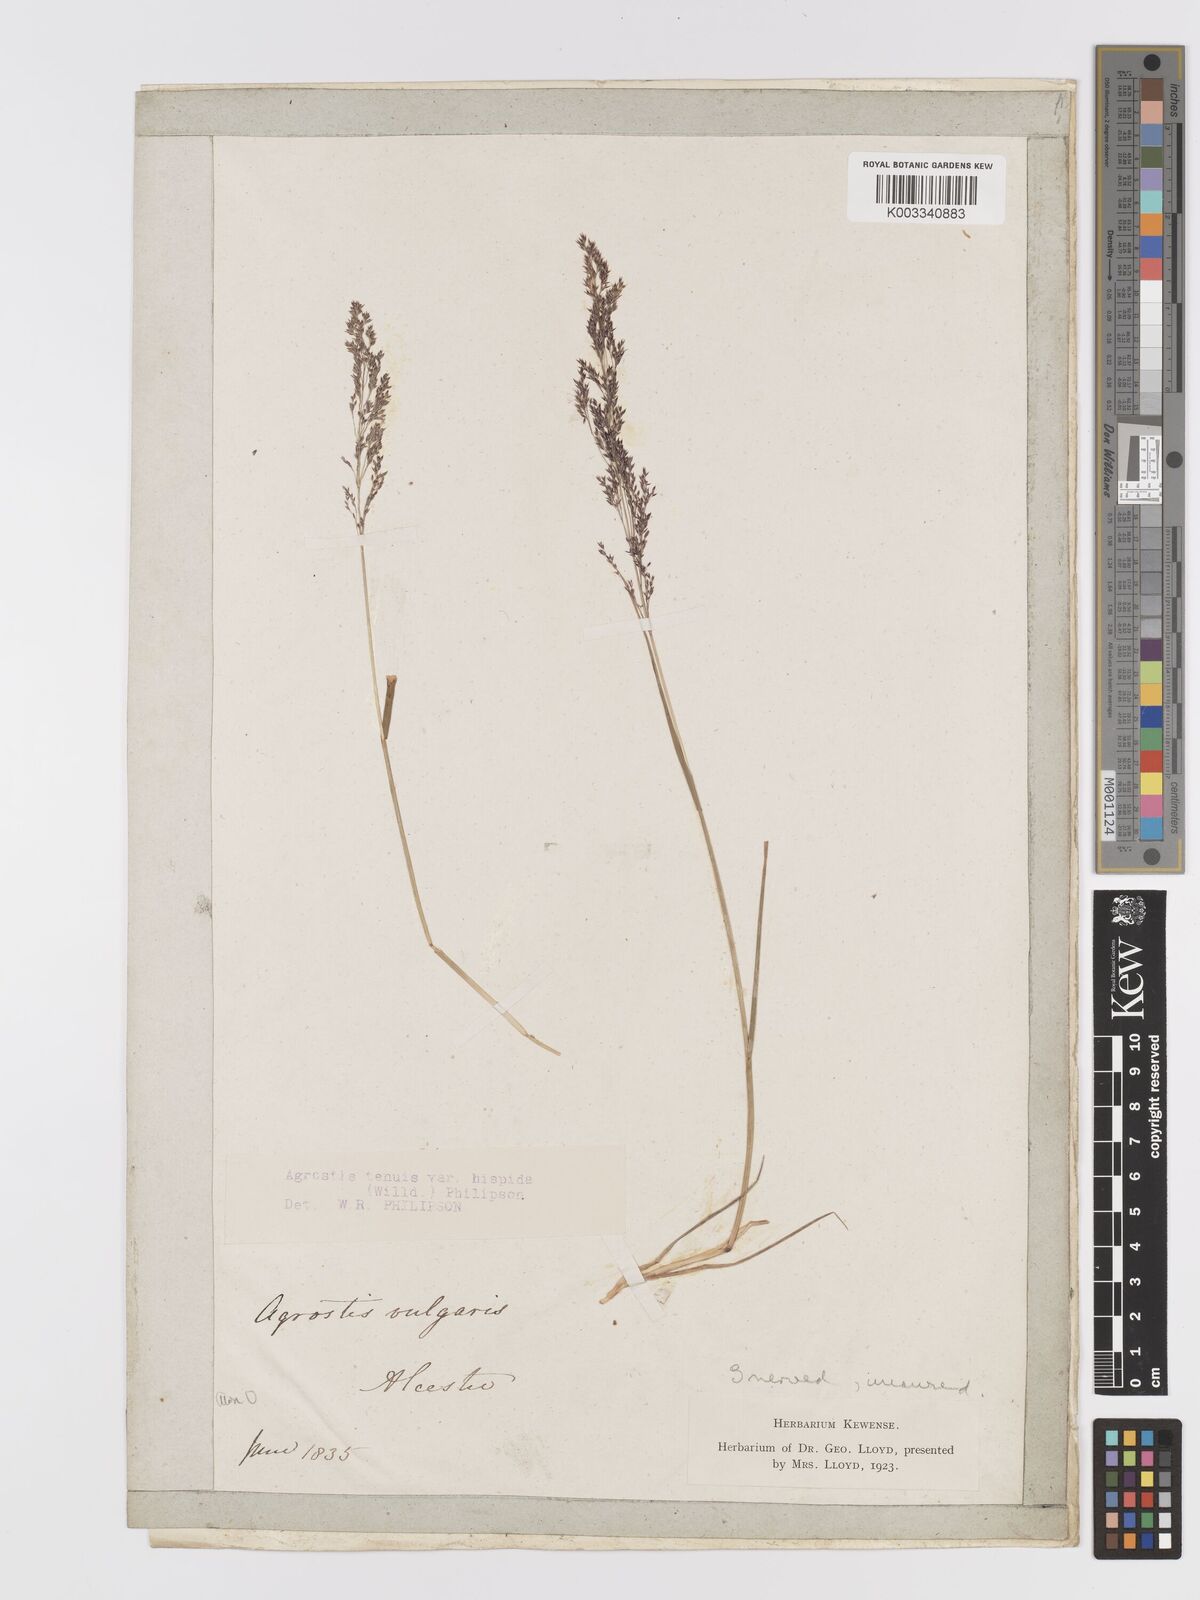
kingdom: Plantae
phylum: Tracheophyta
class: Liliopsida
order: Poales
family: Poaceae
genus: Agrostis
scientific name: Agrostis capillaris
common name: Colonial bentgrass
